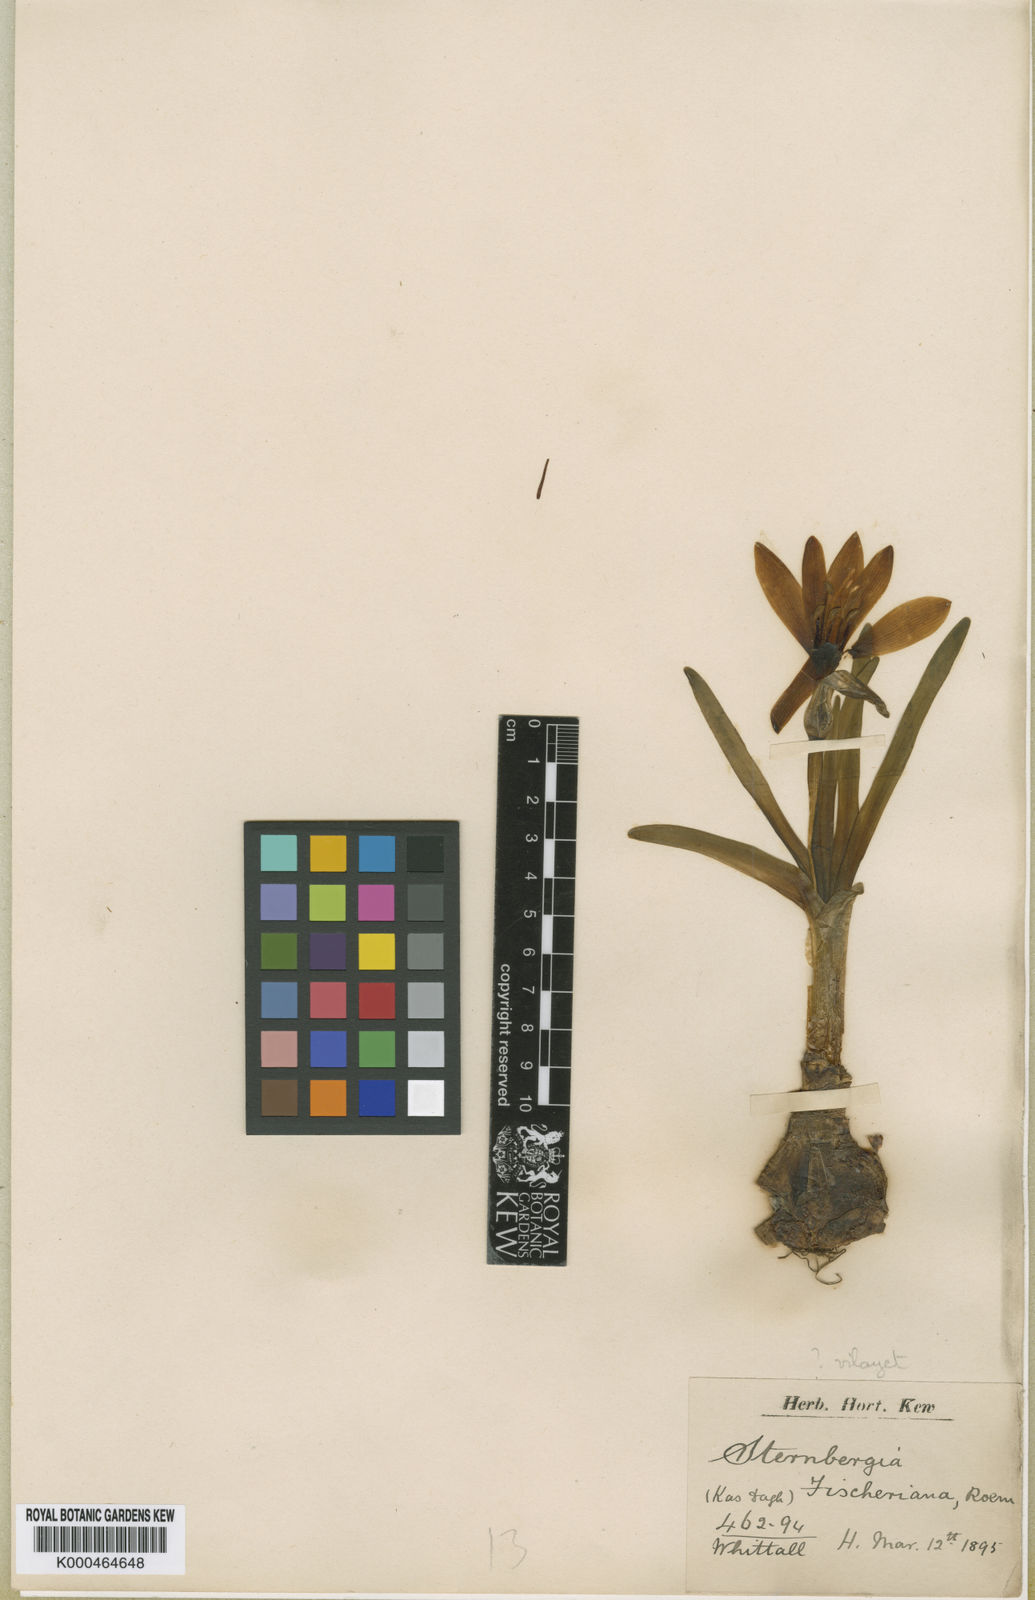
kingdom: Plantae
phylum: Tracheophyta
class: Liliopsida
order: Asparagales
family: Amaryllidaceae
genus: Sternbergia
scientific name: Sternbergia vernalis
